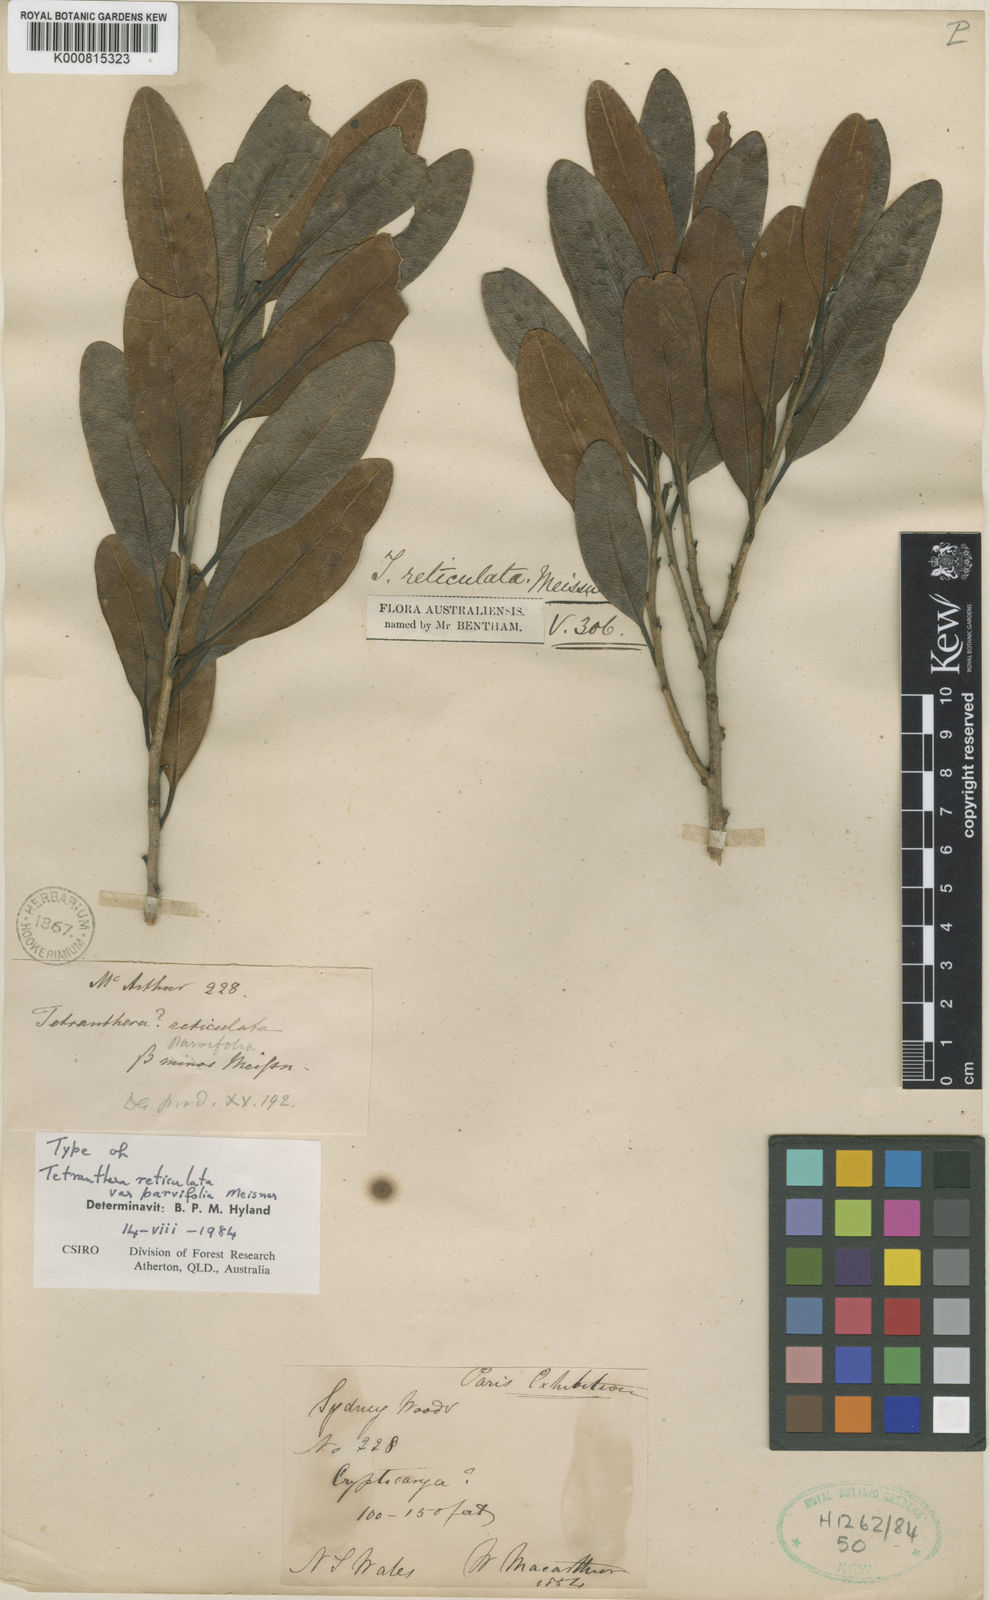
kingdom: Plantae
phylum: Tracheophyta
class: Magnoliopsida
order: Laurales
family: Lauraceae
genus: Litsea
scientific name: Litsea reticulata
